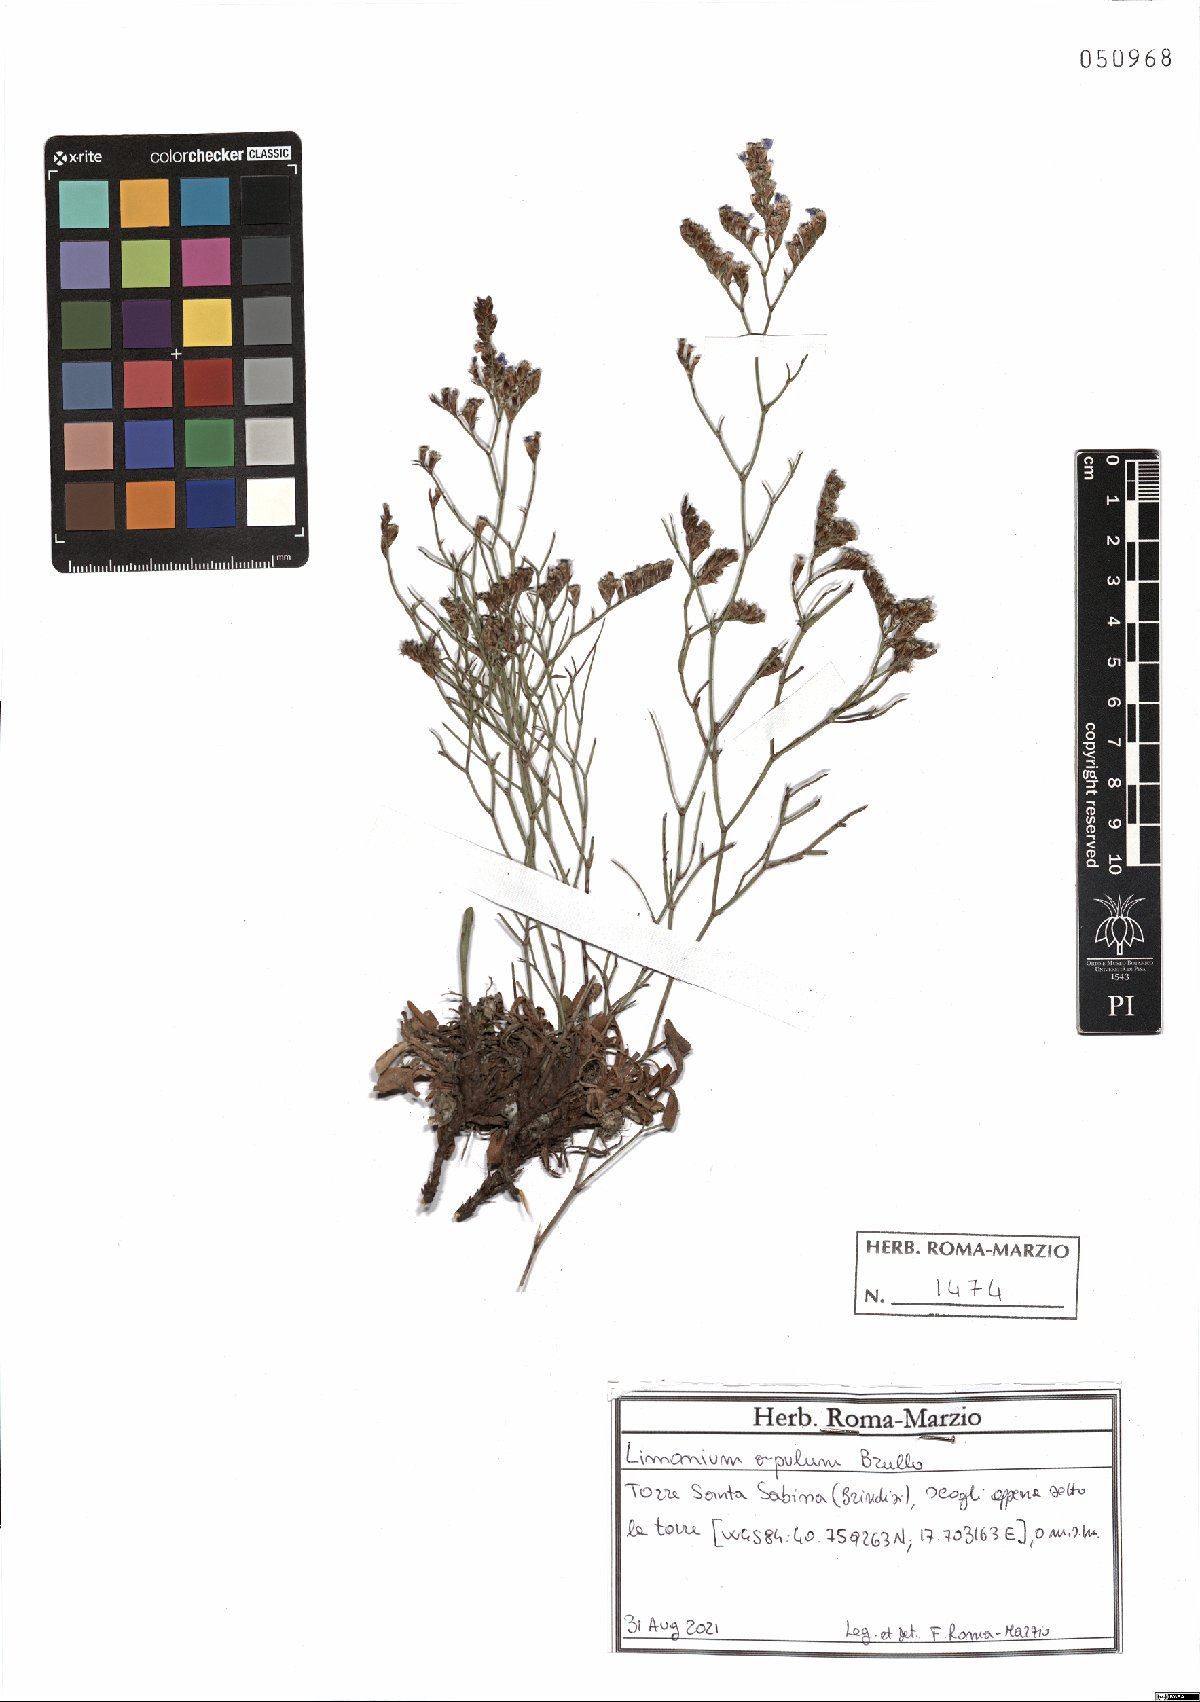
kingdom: Plantae
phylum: Tracheophyta
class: Magnoliopsida
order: Caryophyllales
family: Plumbaginaceae
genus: Limonium
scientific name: Limonium apulum
